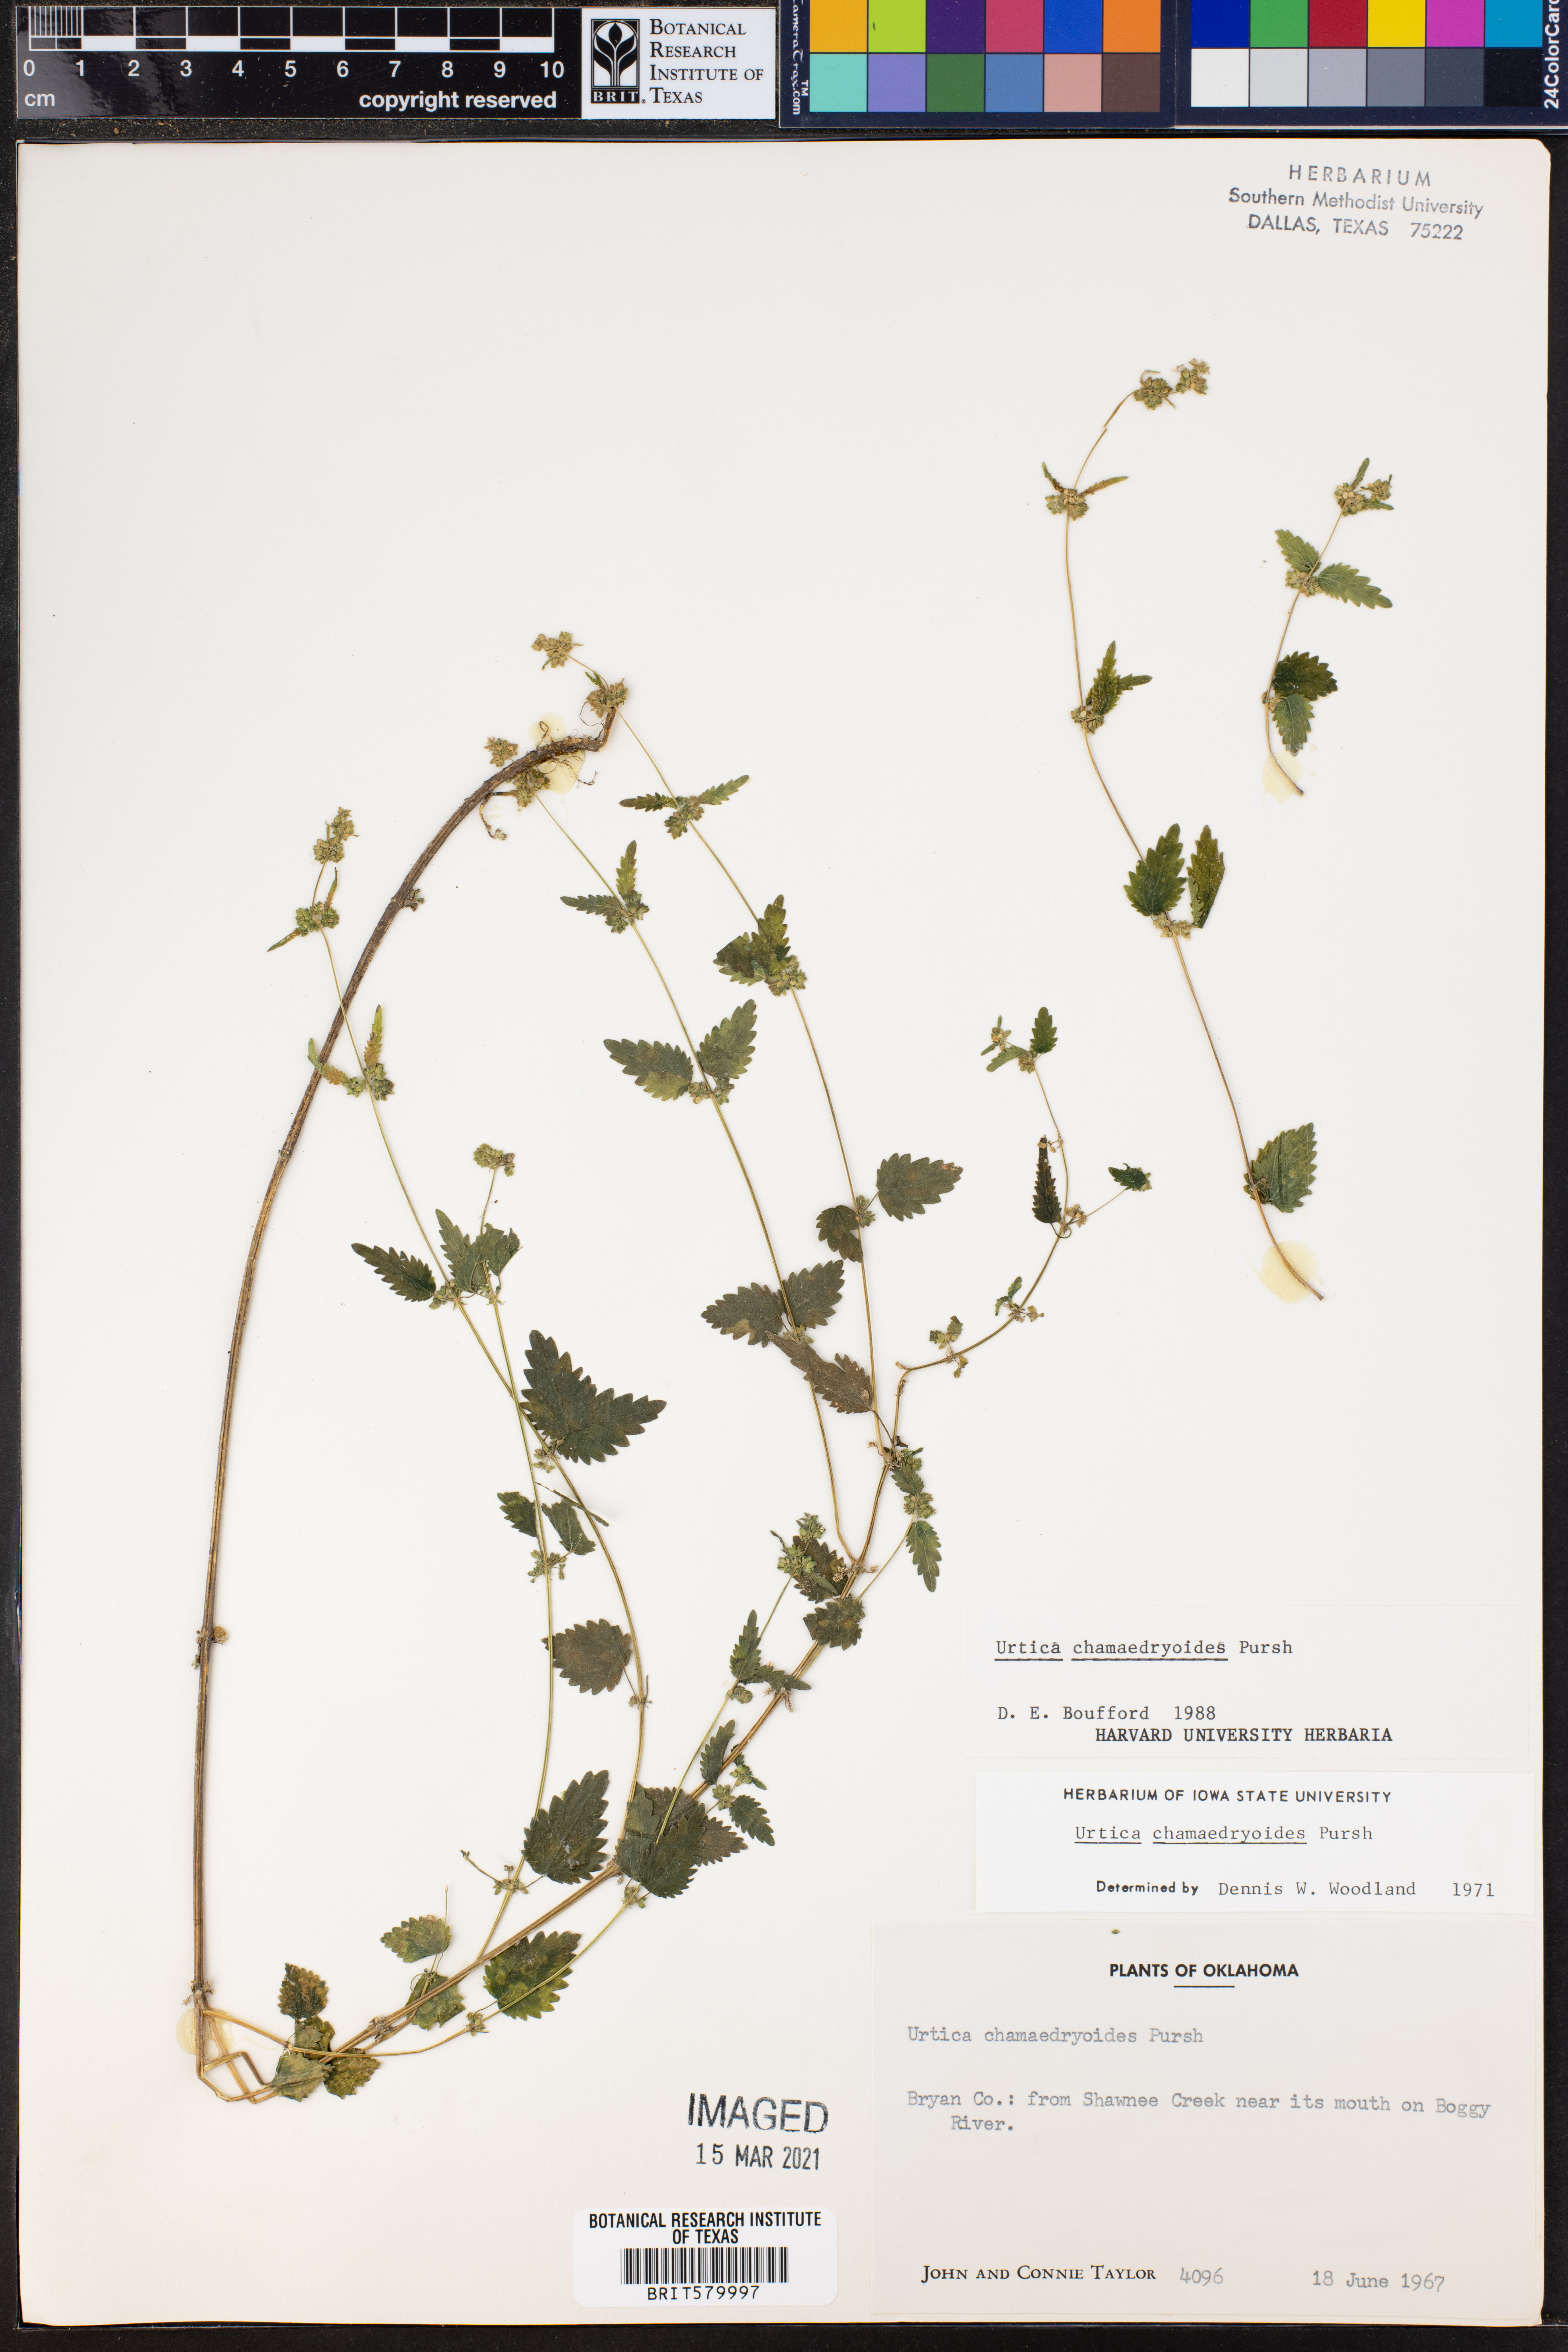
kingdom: Plantae
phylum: Tracheophyta
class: Magnoliopsida
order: Rosales
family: Urticaceae
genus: Urtica
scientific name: Urtica chamaedryoides
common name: Heart-leaf nettle
